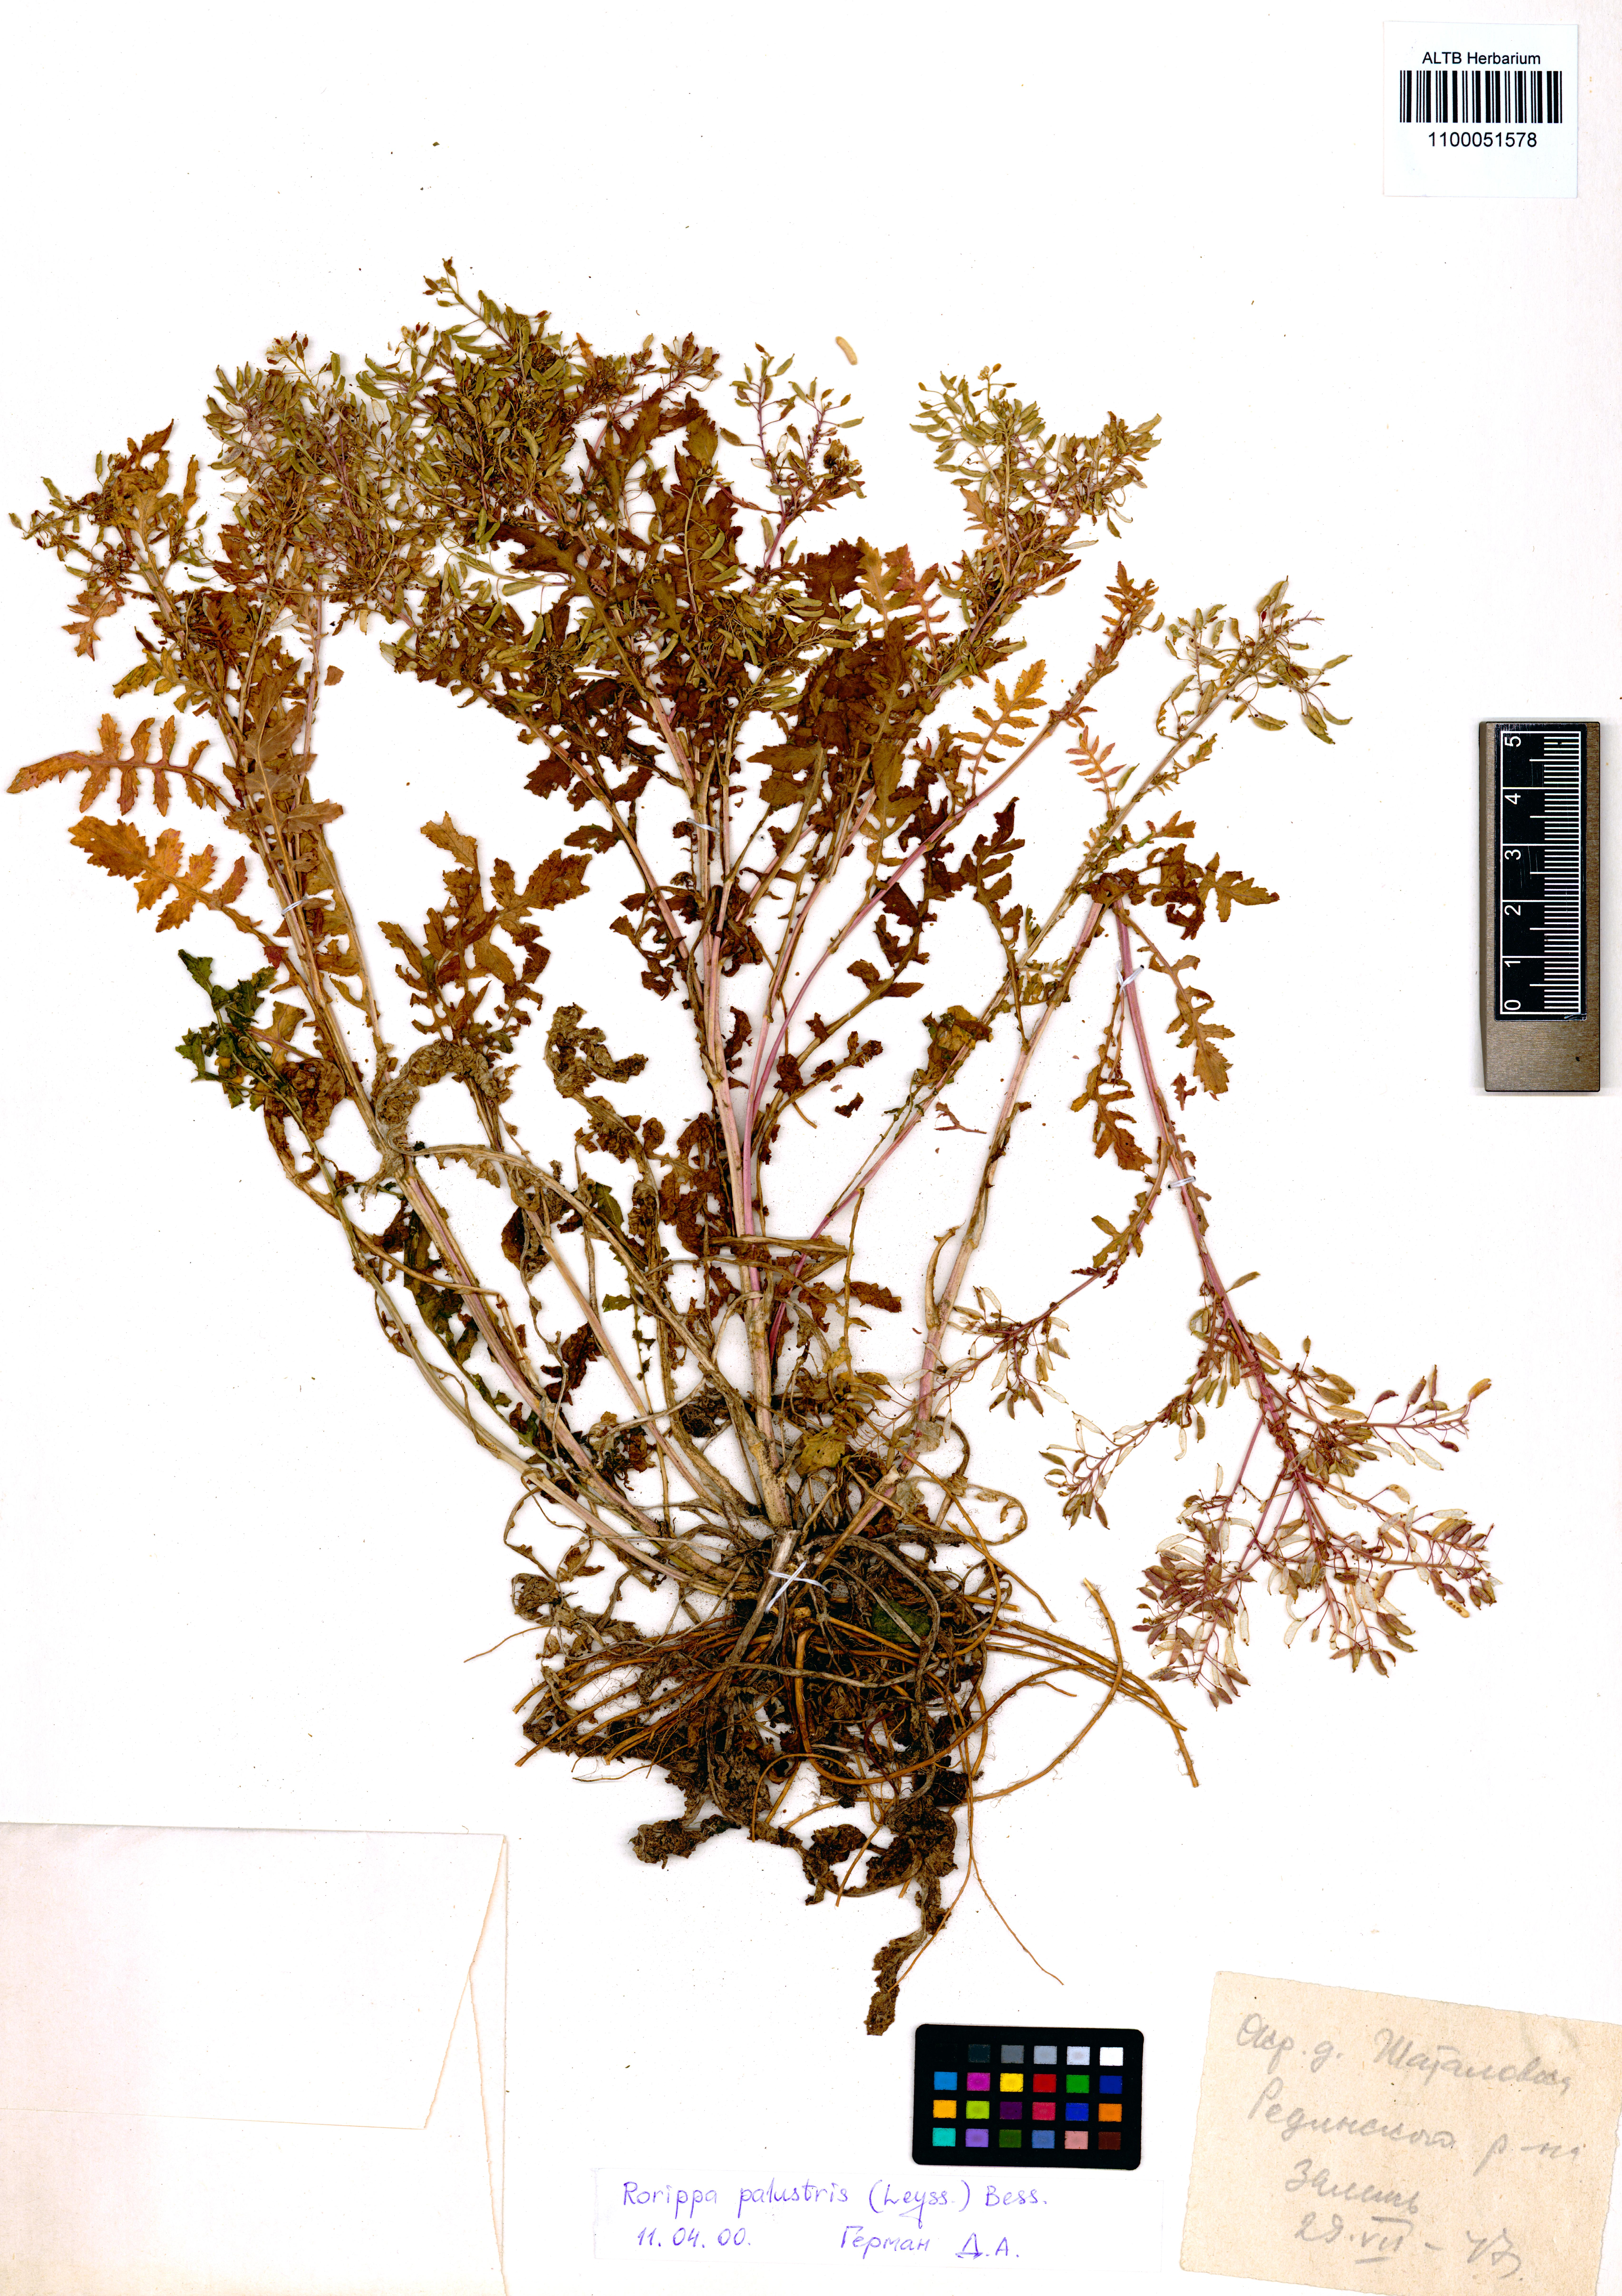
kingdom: Plantae
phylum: Tracheophyta
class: Magnoliopsida
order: Brassicales
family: Brassicaceae
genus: Rorippa
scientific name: Rorippa palustris
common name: Marsh yellow-cress
